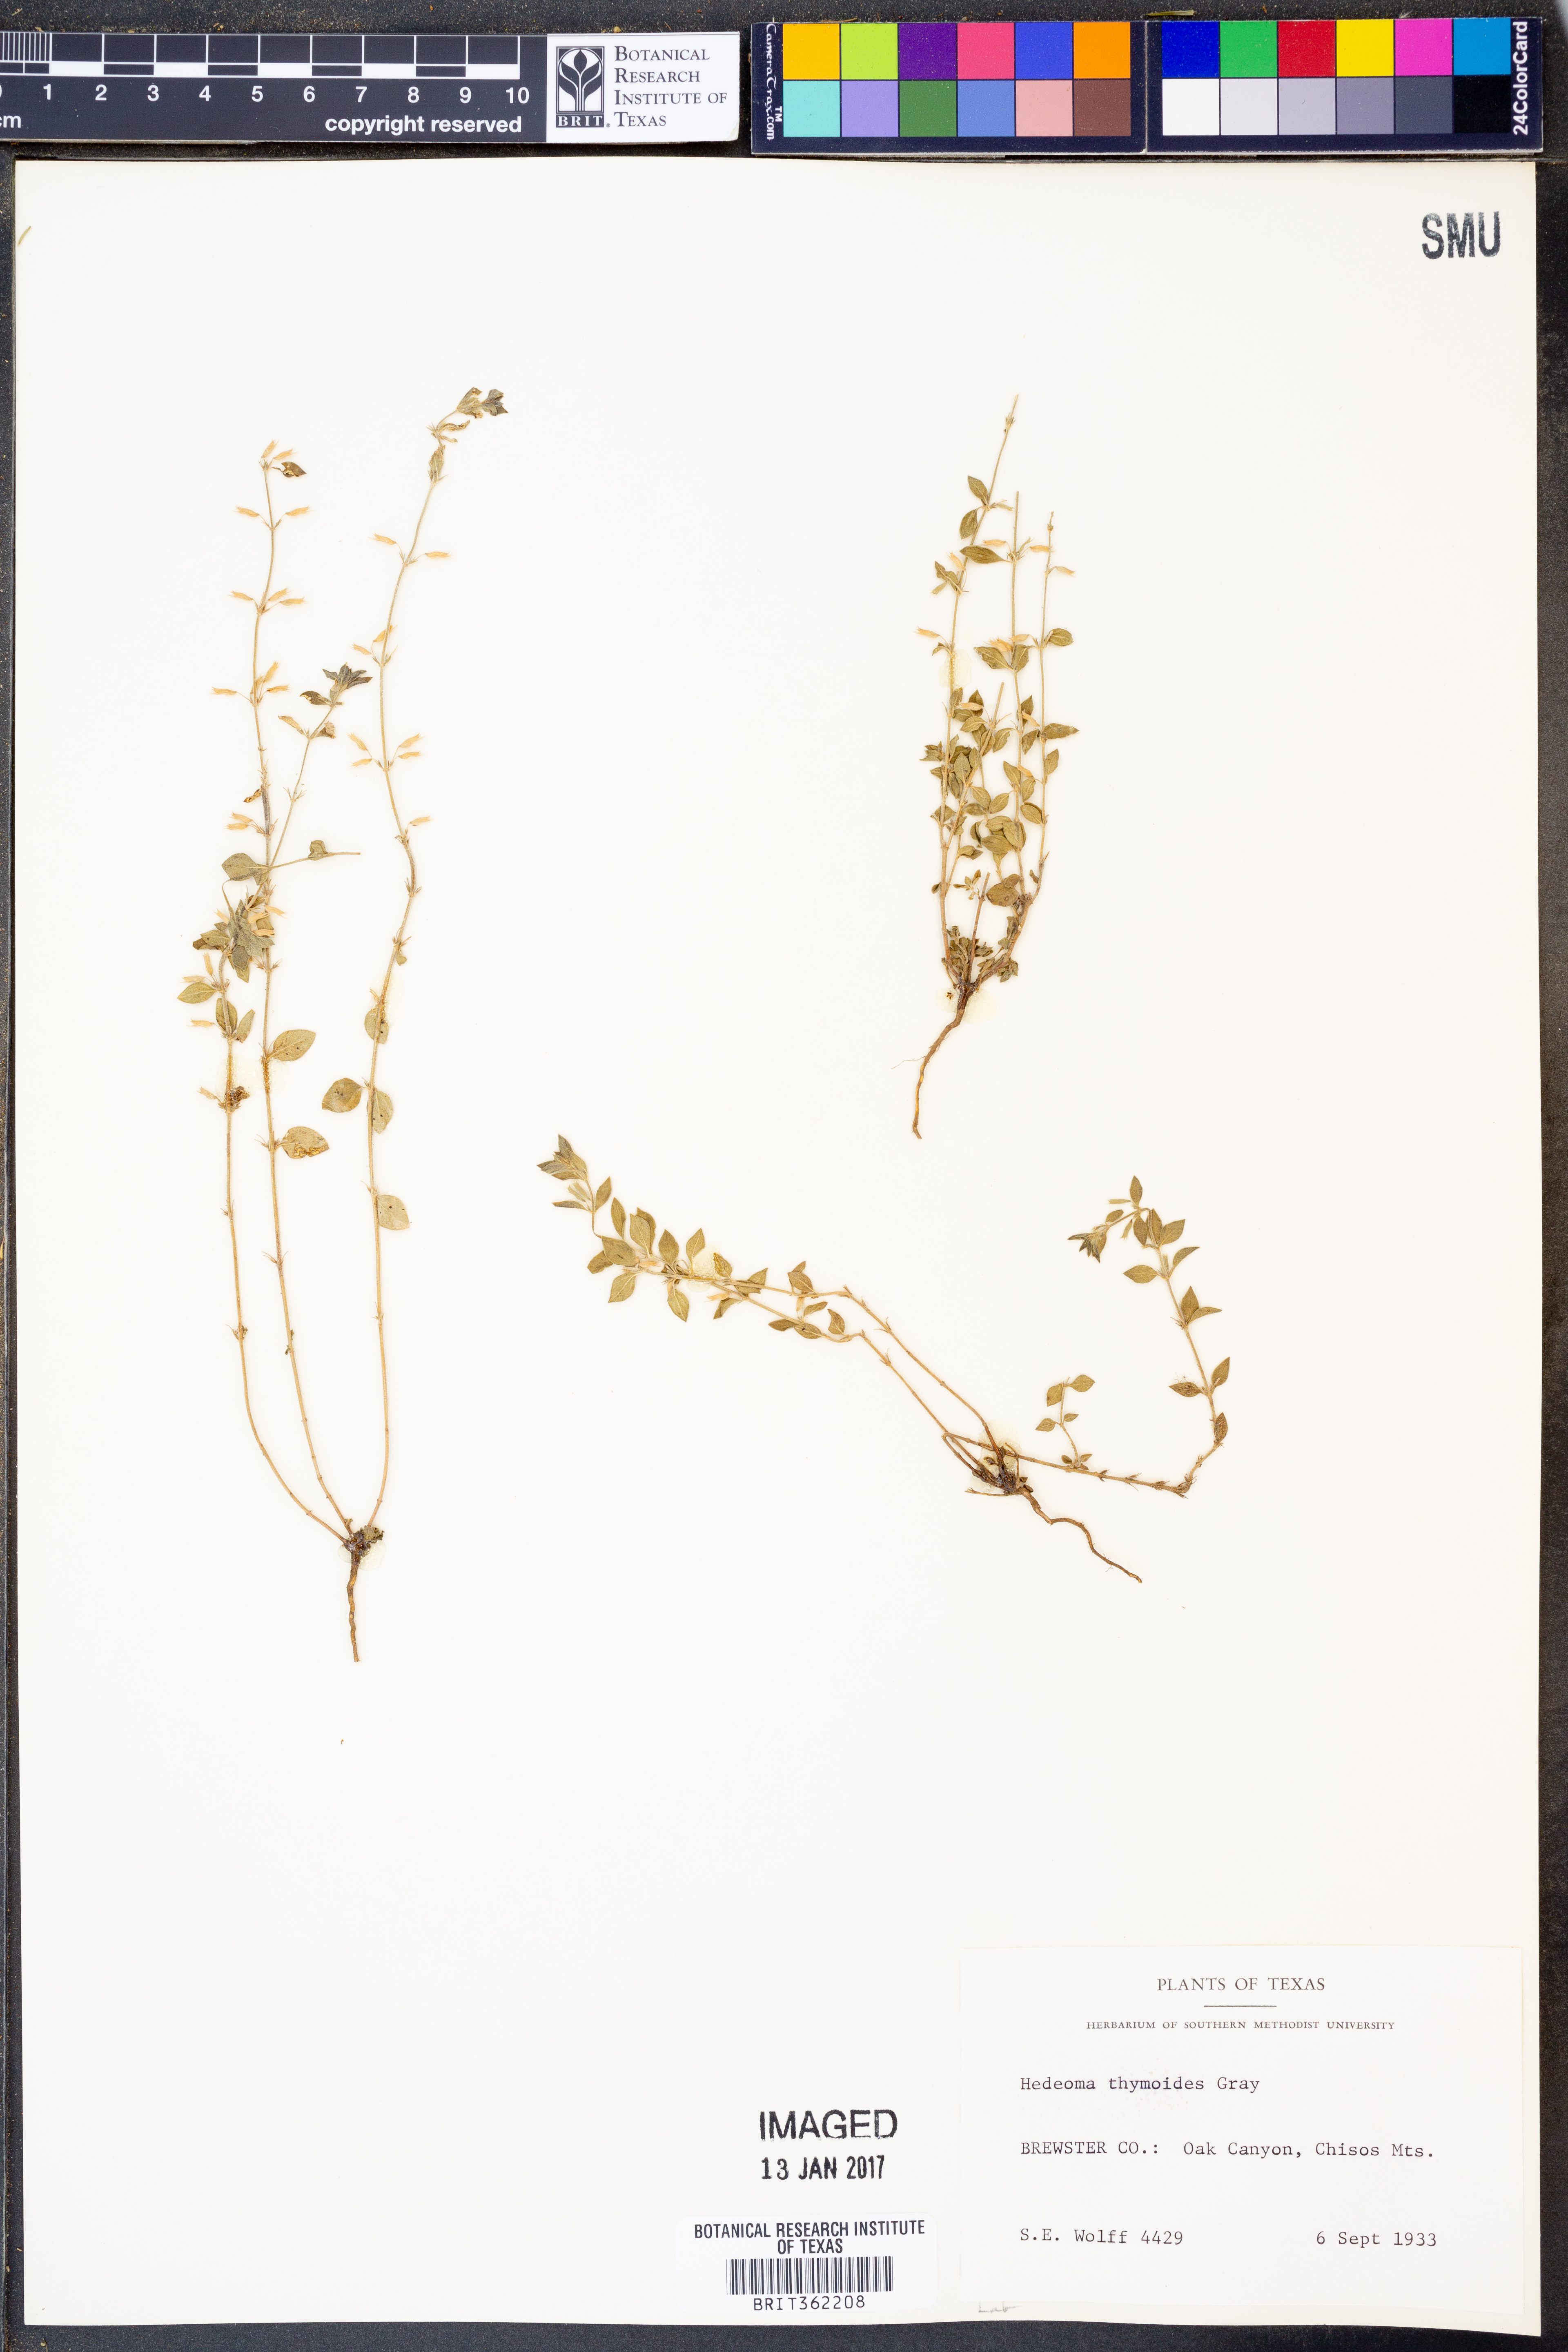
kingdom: Plantae
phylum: Tracheophyta
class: Magnoliopsida
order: Lamiales
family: Lamiaceae
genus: Hedeoma
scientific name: Hedeoma nana
